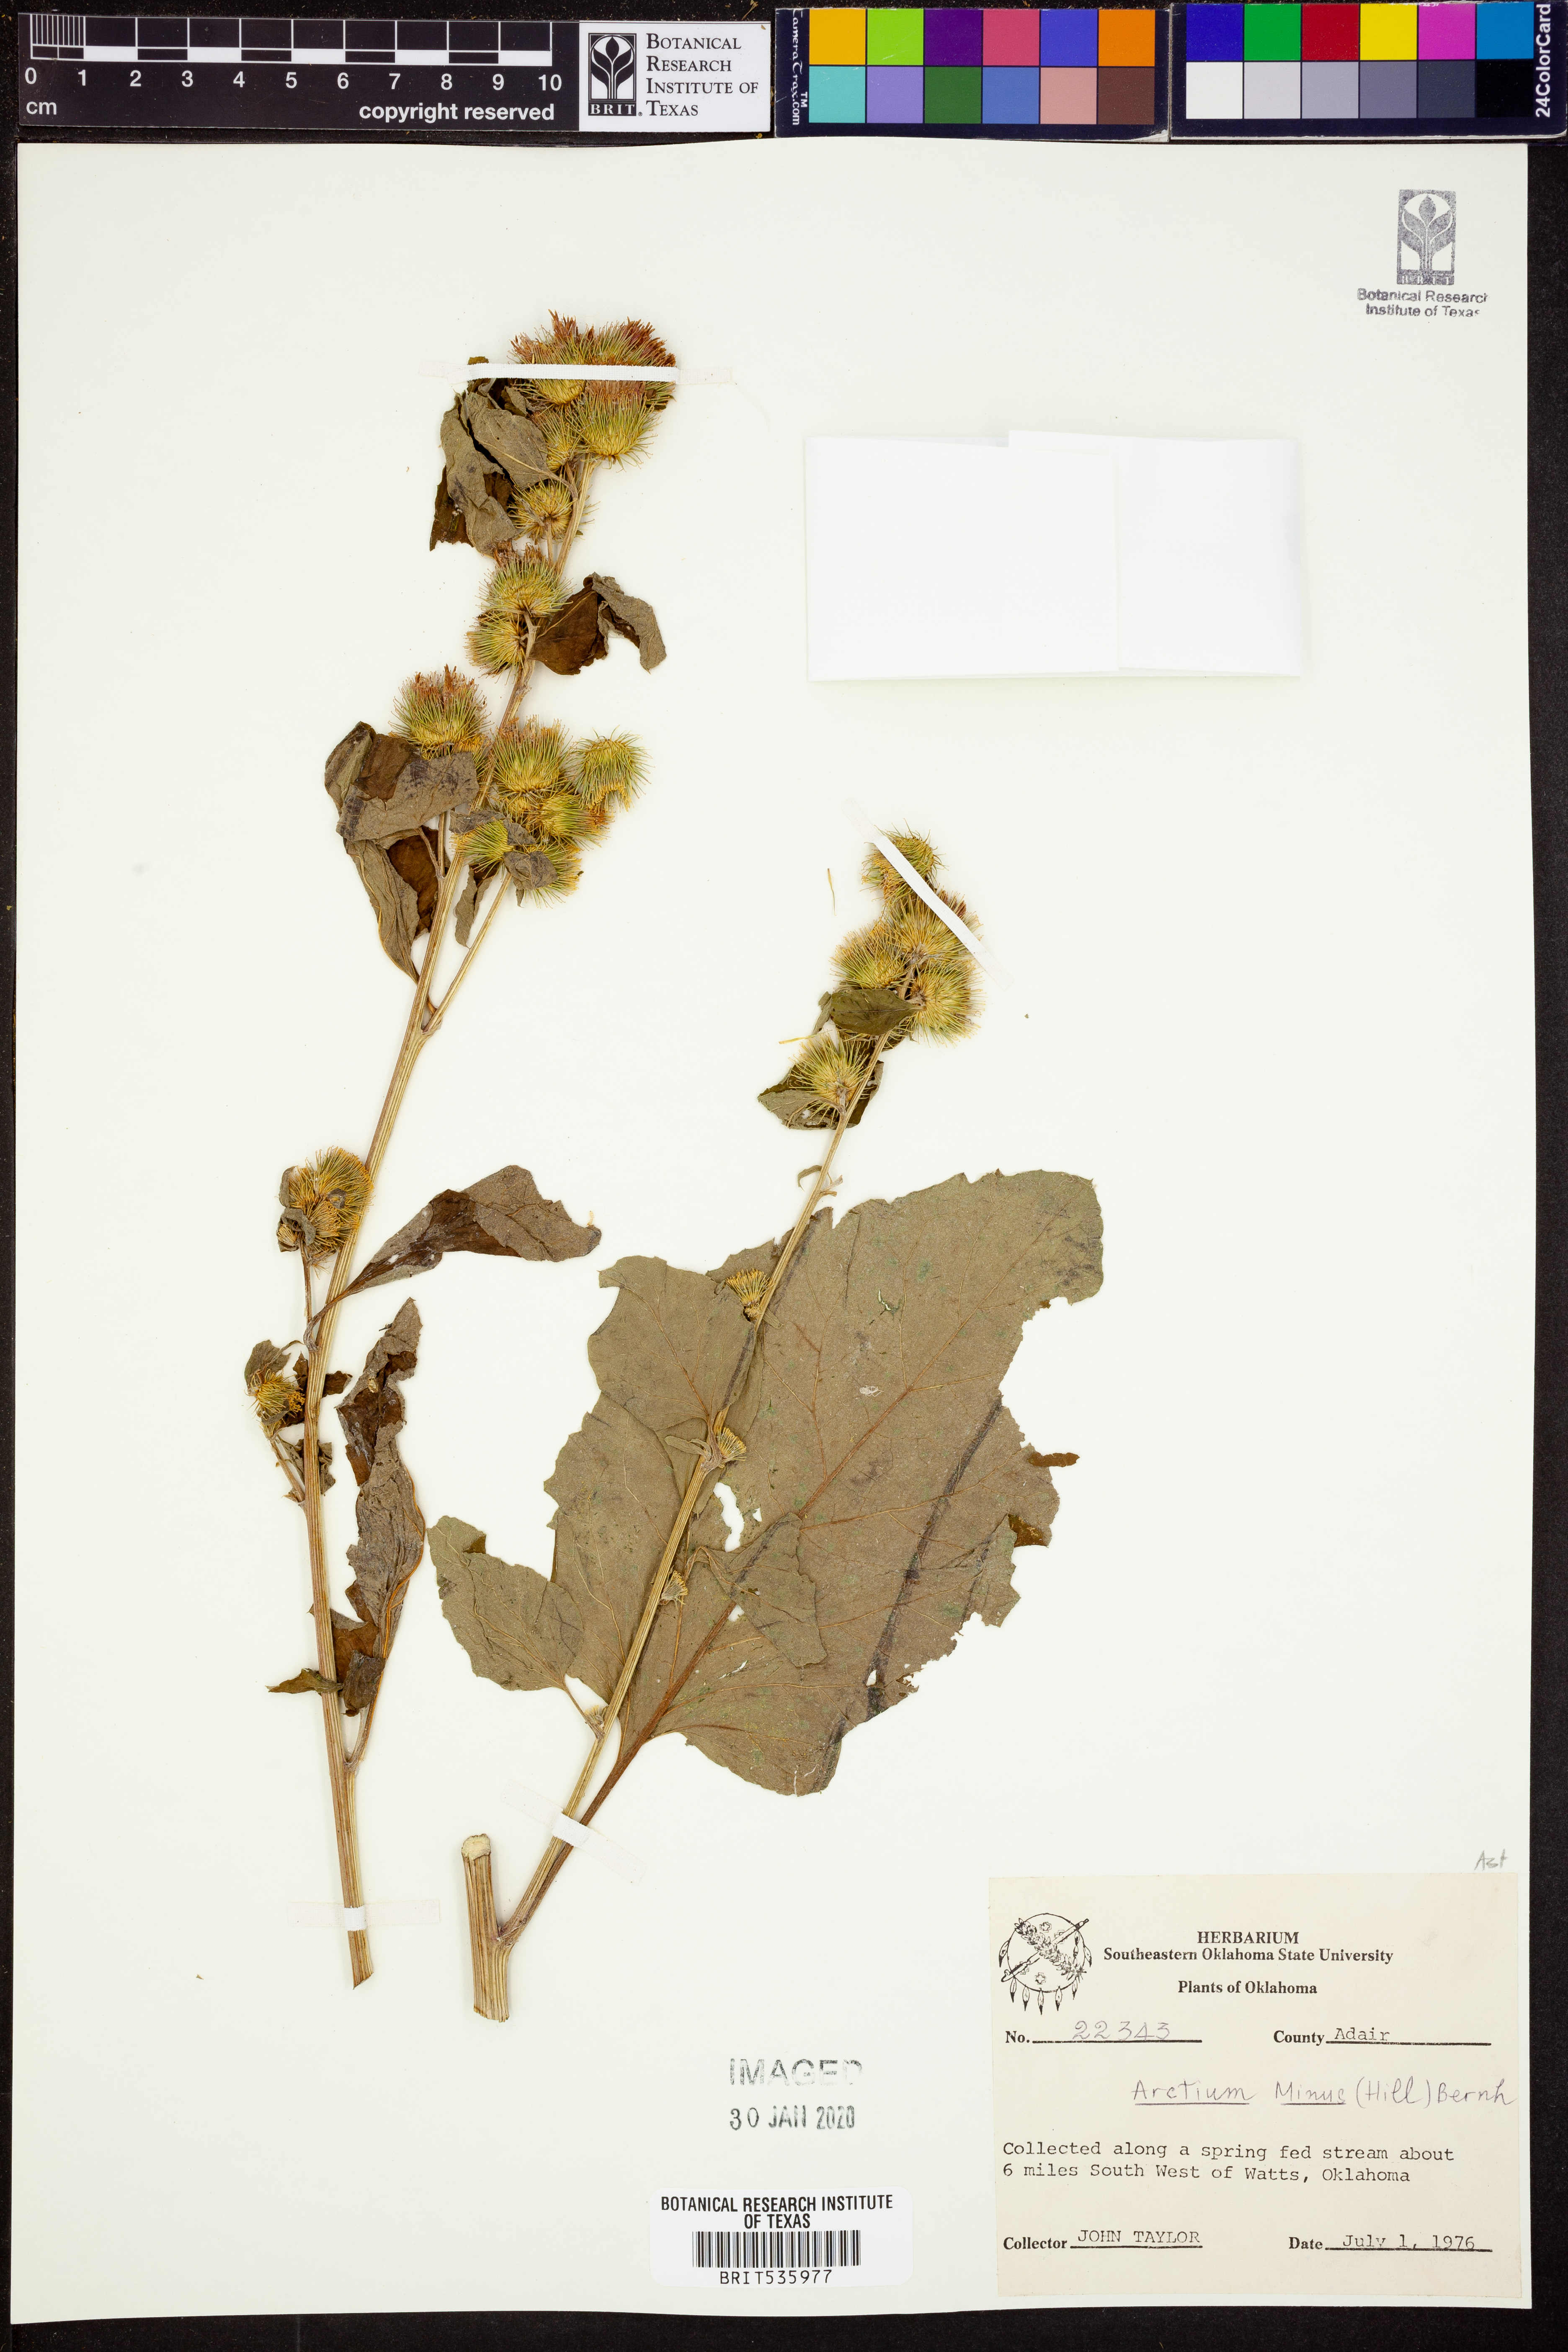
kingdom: Plantae
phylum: Tracheophyta
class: Magnoliopsida
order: Asterales
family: Asteraceae
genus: Arctium
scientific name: Arctium minus
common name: Lesser burdock
